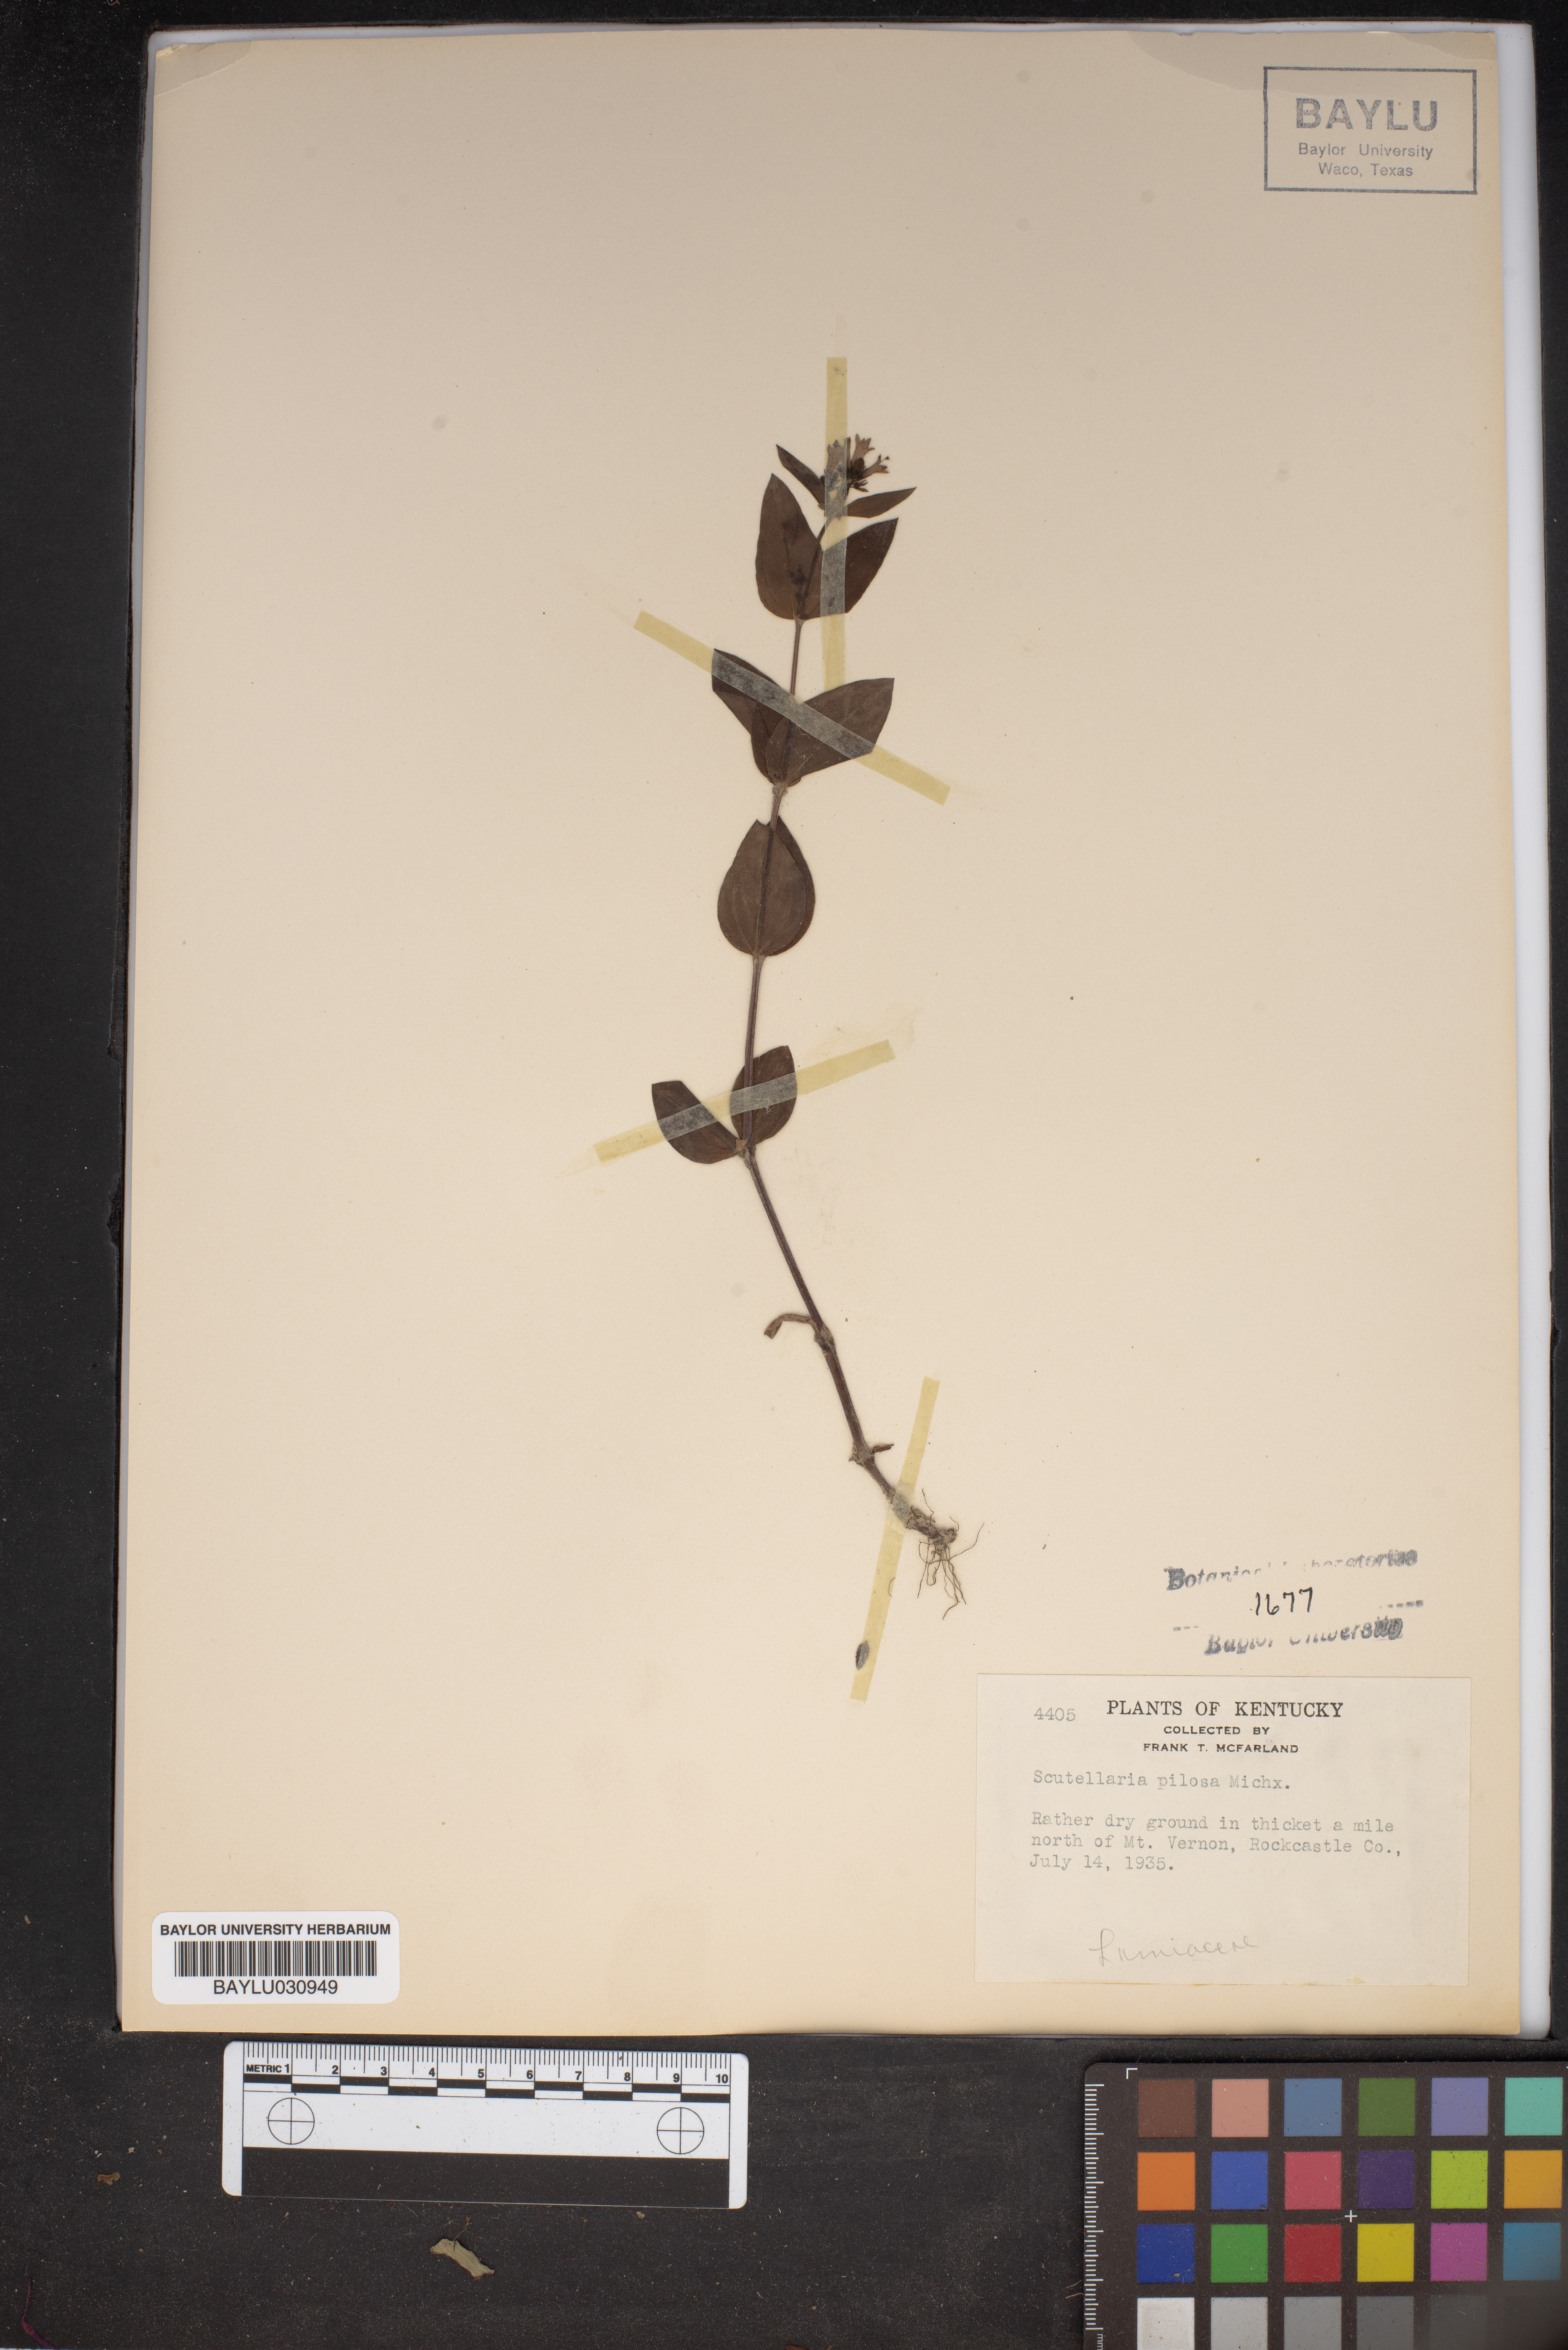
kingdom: Plantae
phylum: Tracheophyta
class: Magnoliopsida
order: Lamiales
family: Lamiaceae
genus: Scutellaria
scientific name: Scutellaria elliptica
